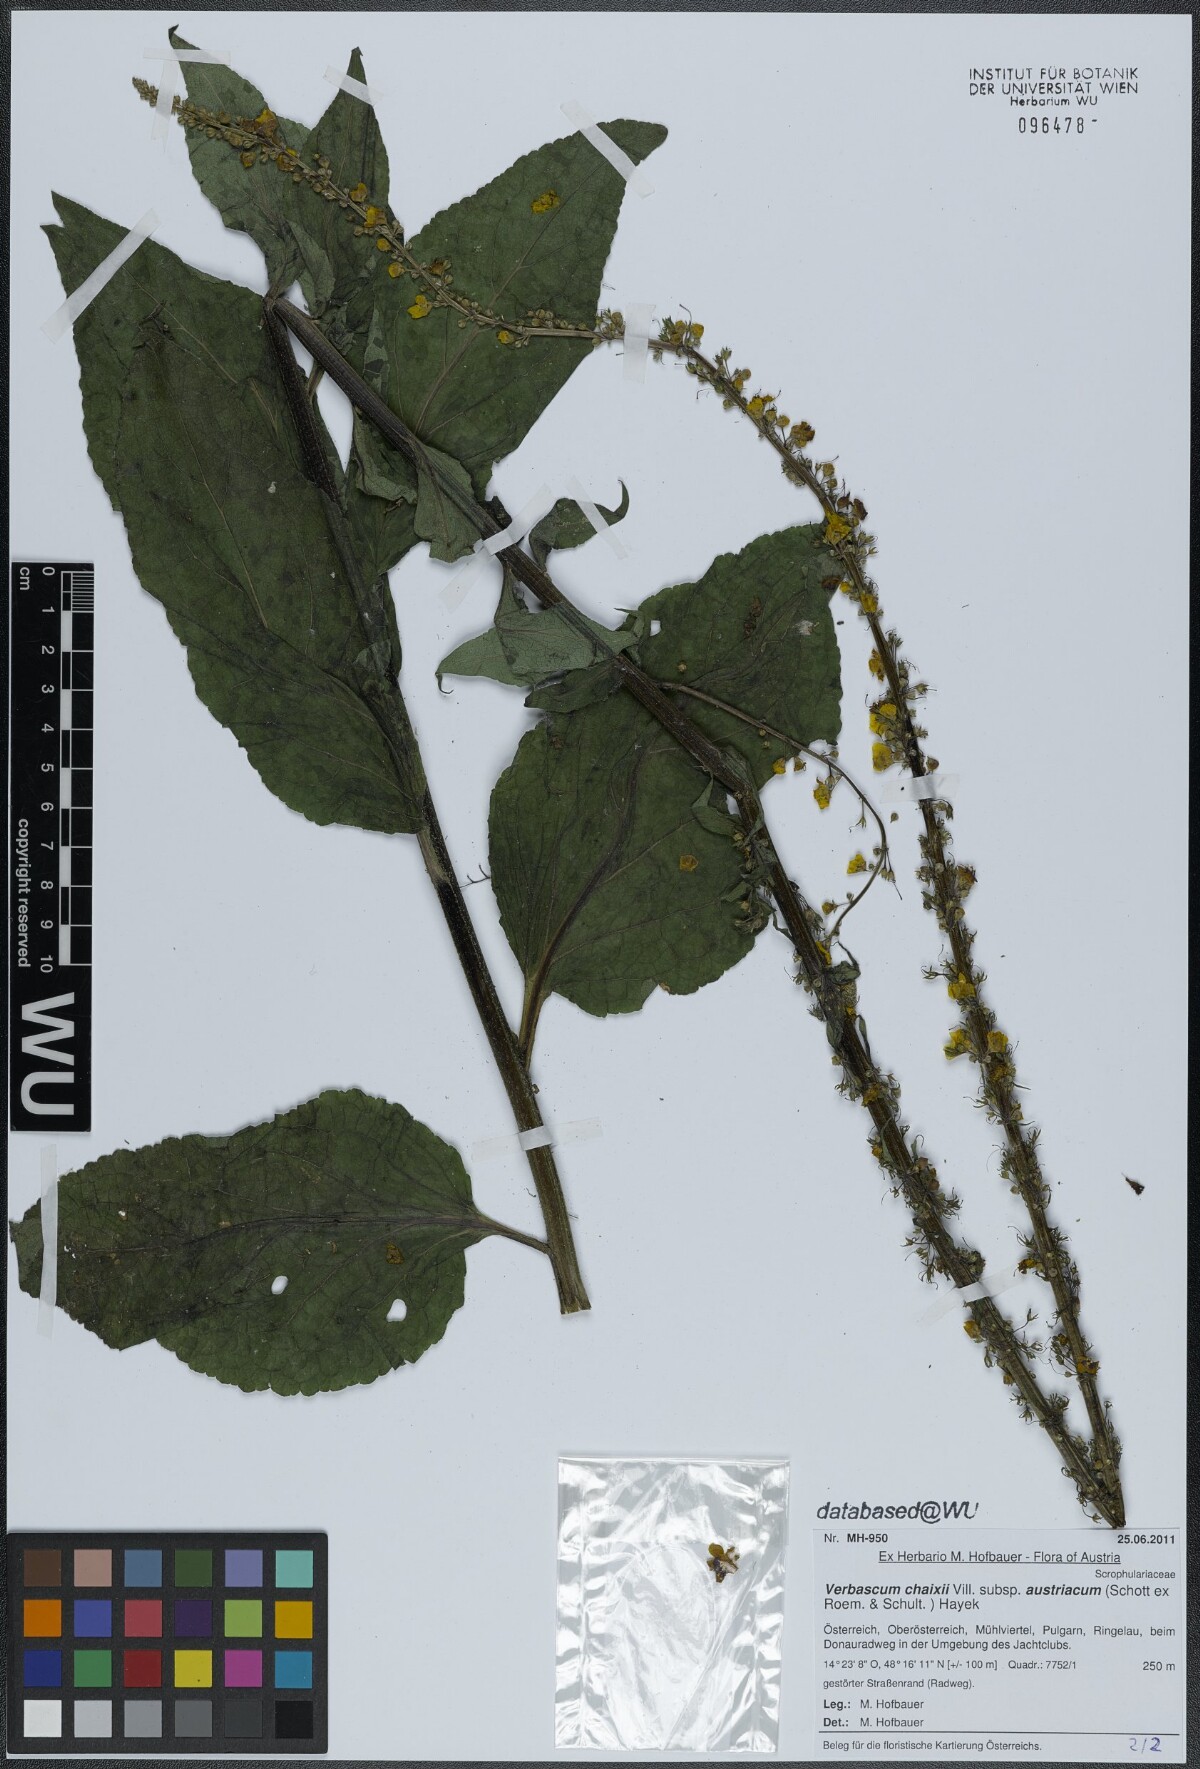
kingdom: Plantae
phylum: Tracheophyta
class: Magnoliopsida
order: Lamiales
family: Scrophulariaceae
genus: Verbascum
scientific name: Verbascum chaixii
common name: Nettle-leaved mullein
